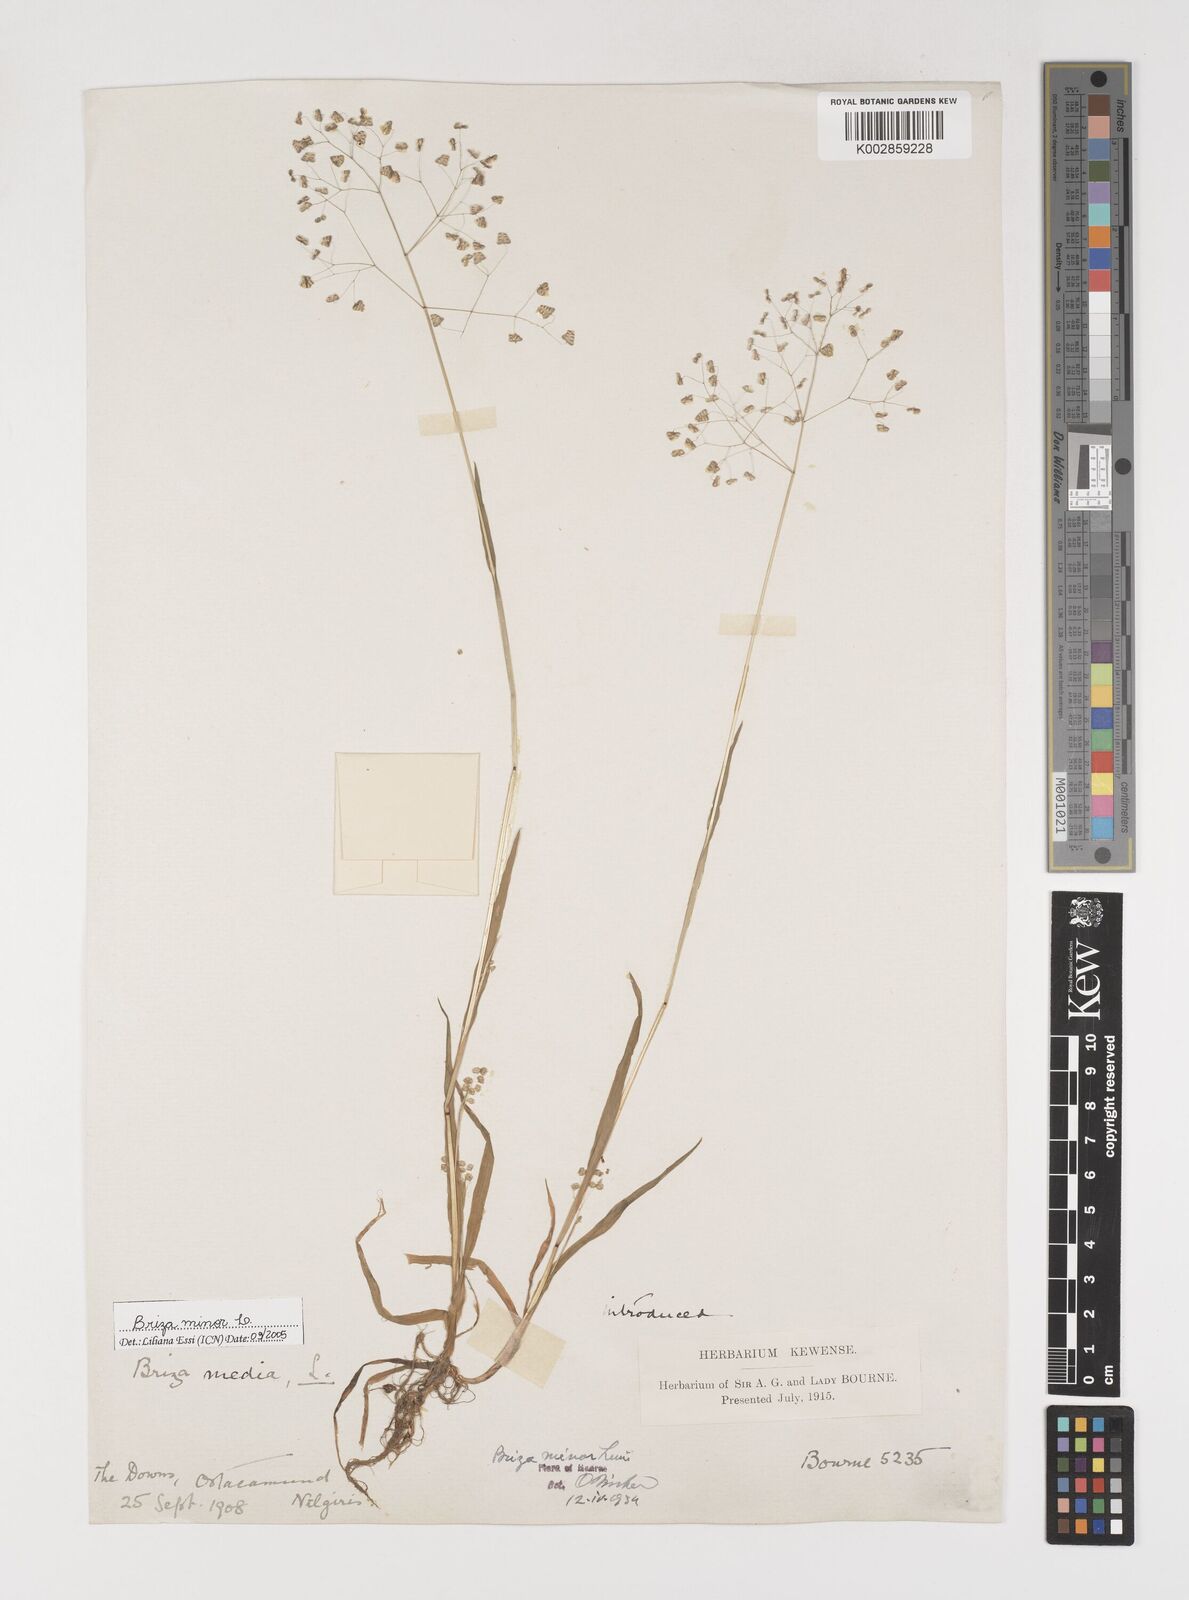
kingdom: Plantae
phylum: Tracheophyta
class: Liliopsida
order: Poales
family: Poaceae
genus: Briza
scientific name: Briza minor
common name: Lesser quaking-grass
